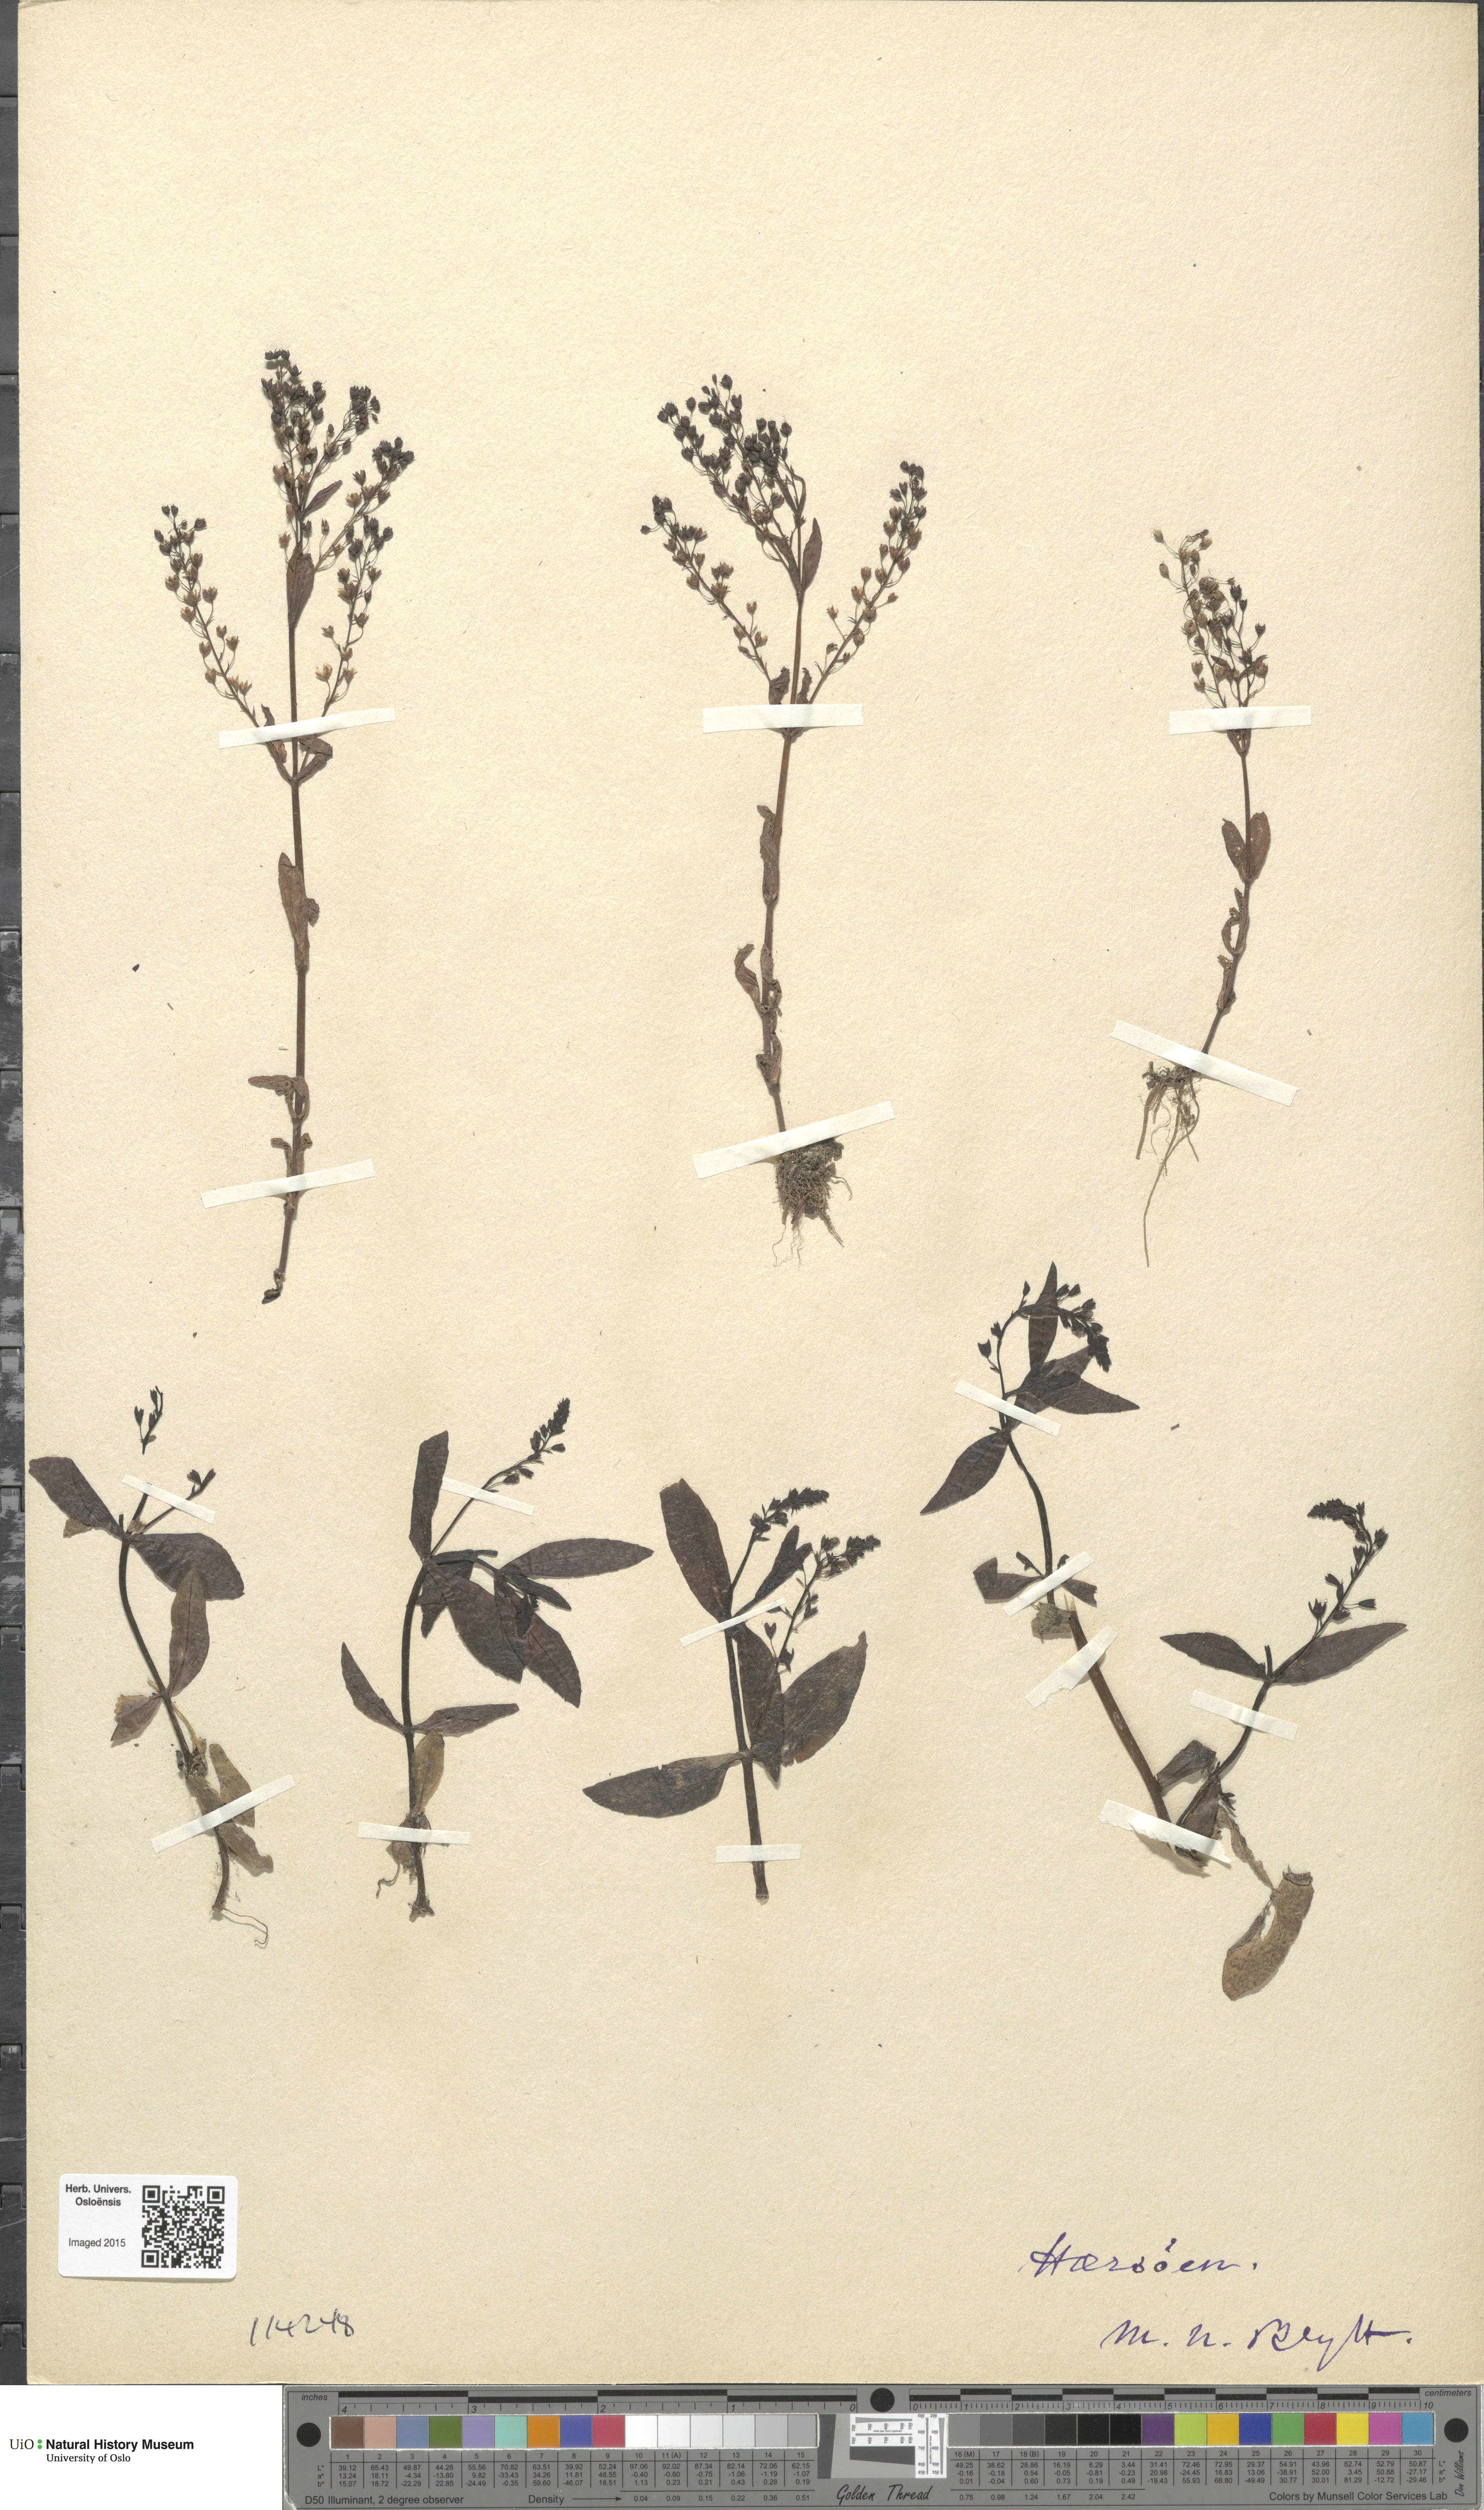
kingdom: Plantae
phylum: Tracheophyta
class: Magnoliopsida
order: Lamiales
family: Plantaginaceae
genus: Veronica
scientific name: Veronica anagallis-aquatica
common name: Water speedwell
